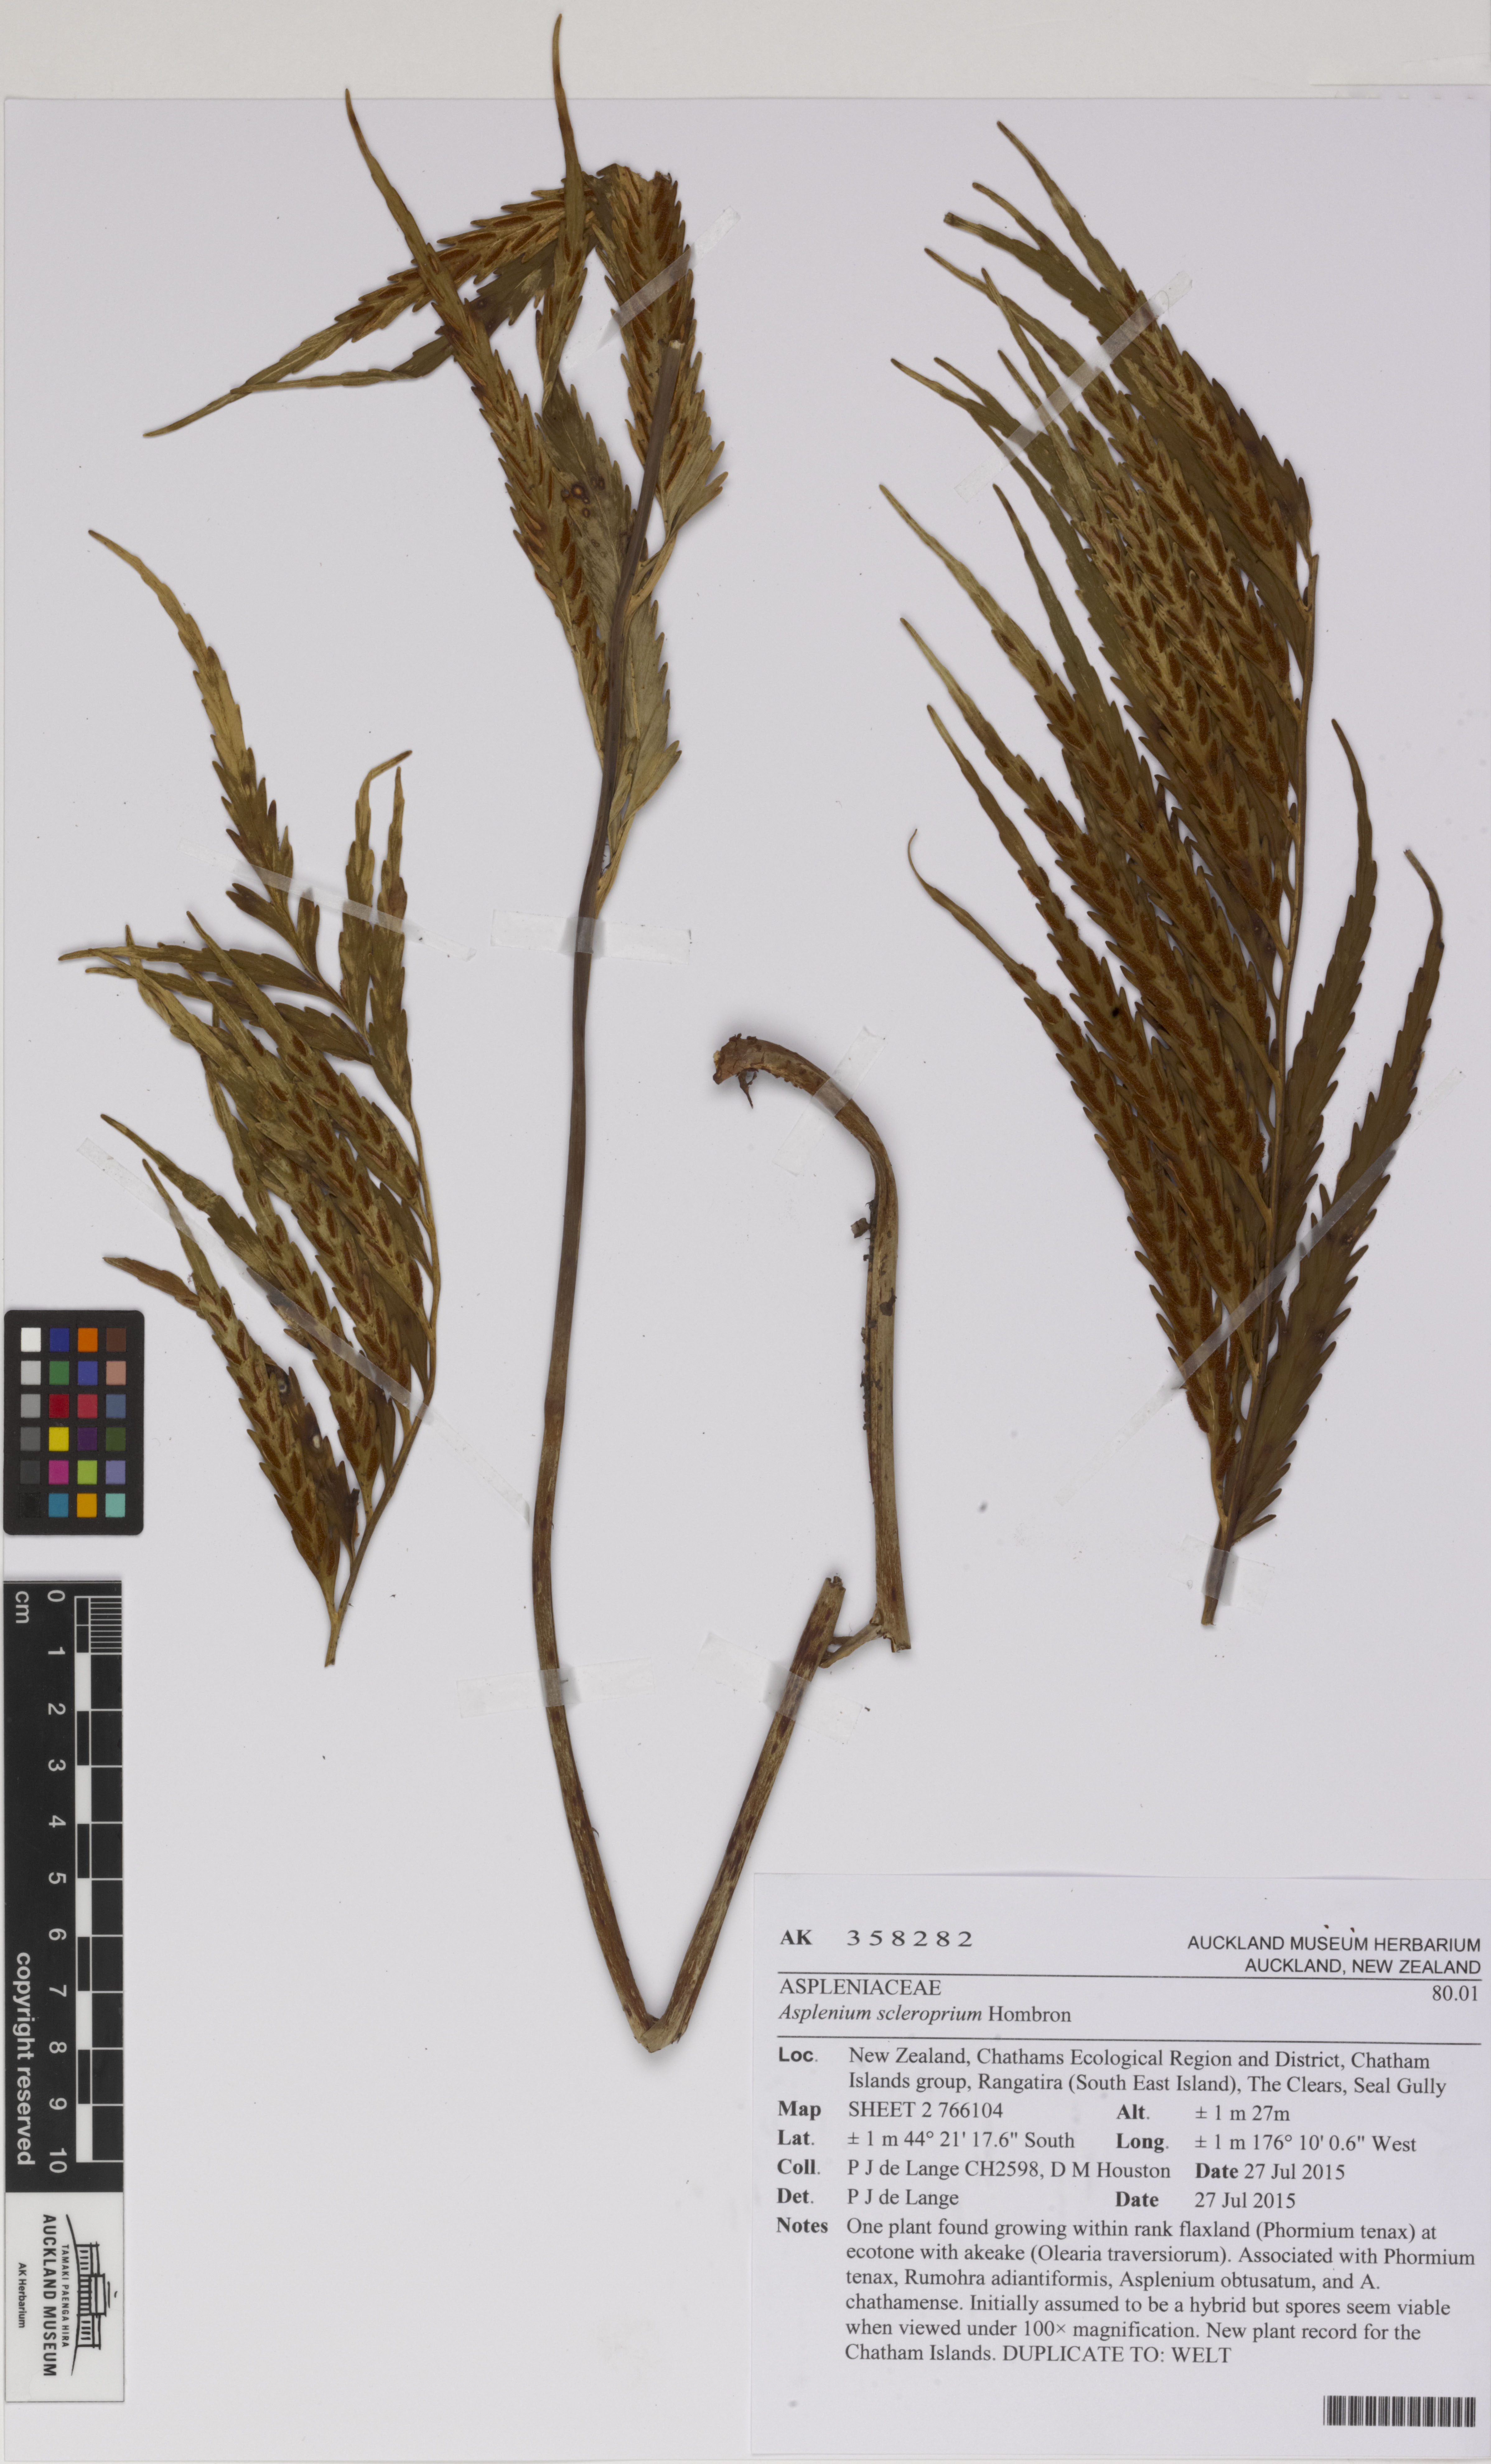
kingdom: Plantae
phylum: Tracheophyta
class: Polypodiopsida
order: Polypodiales
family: Aspleniaceae
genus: Asplenium
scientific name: Asplenium scleroprium
